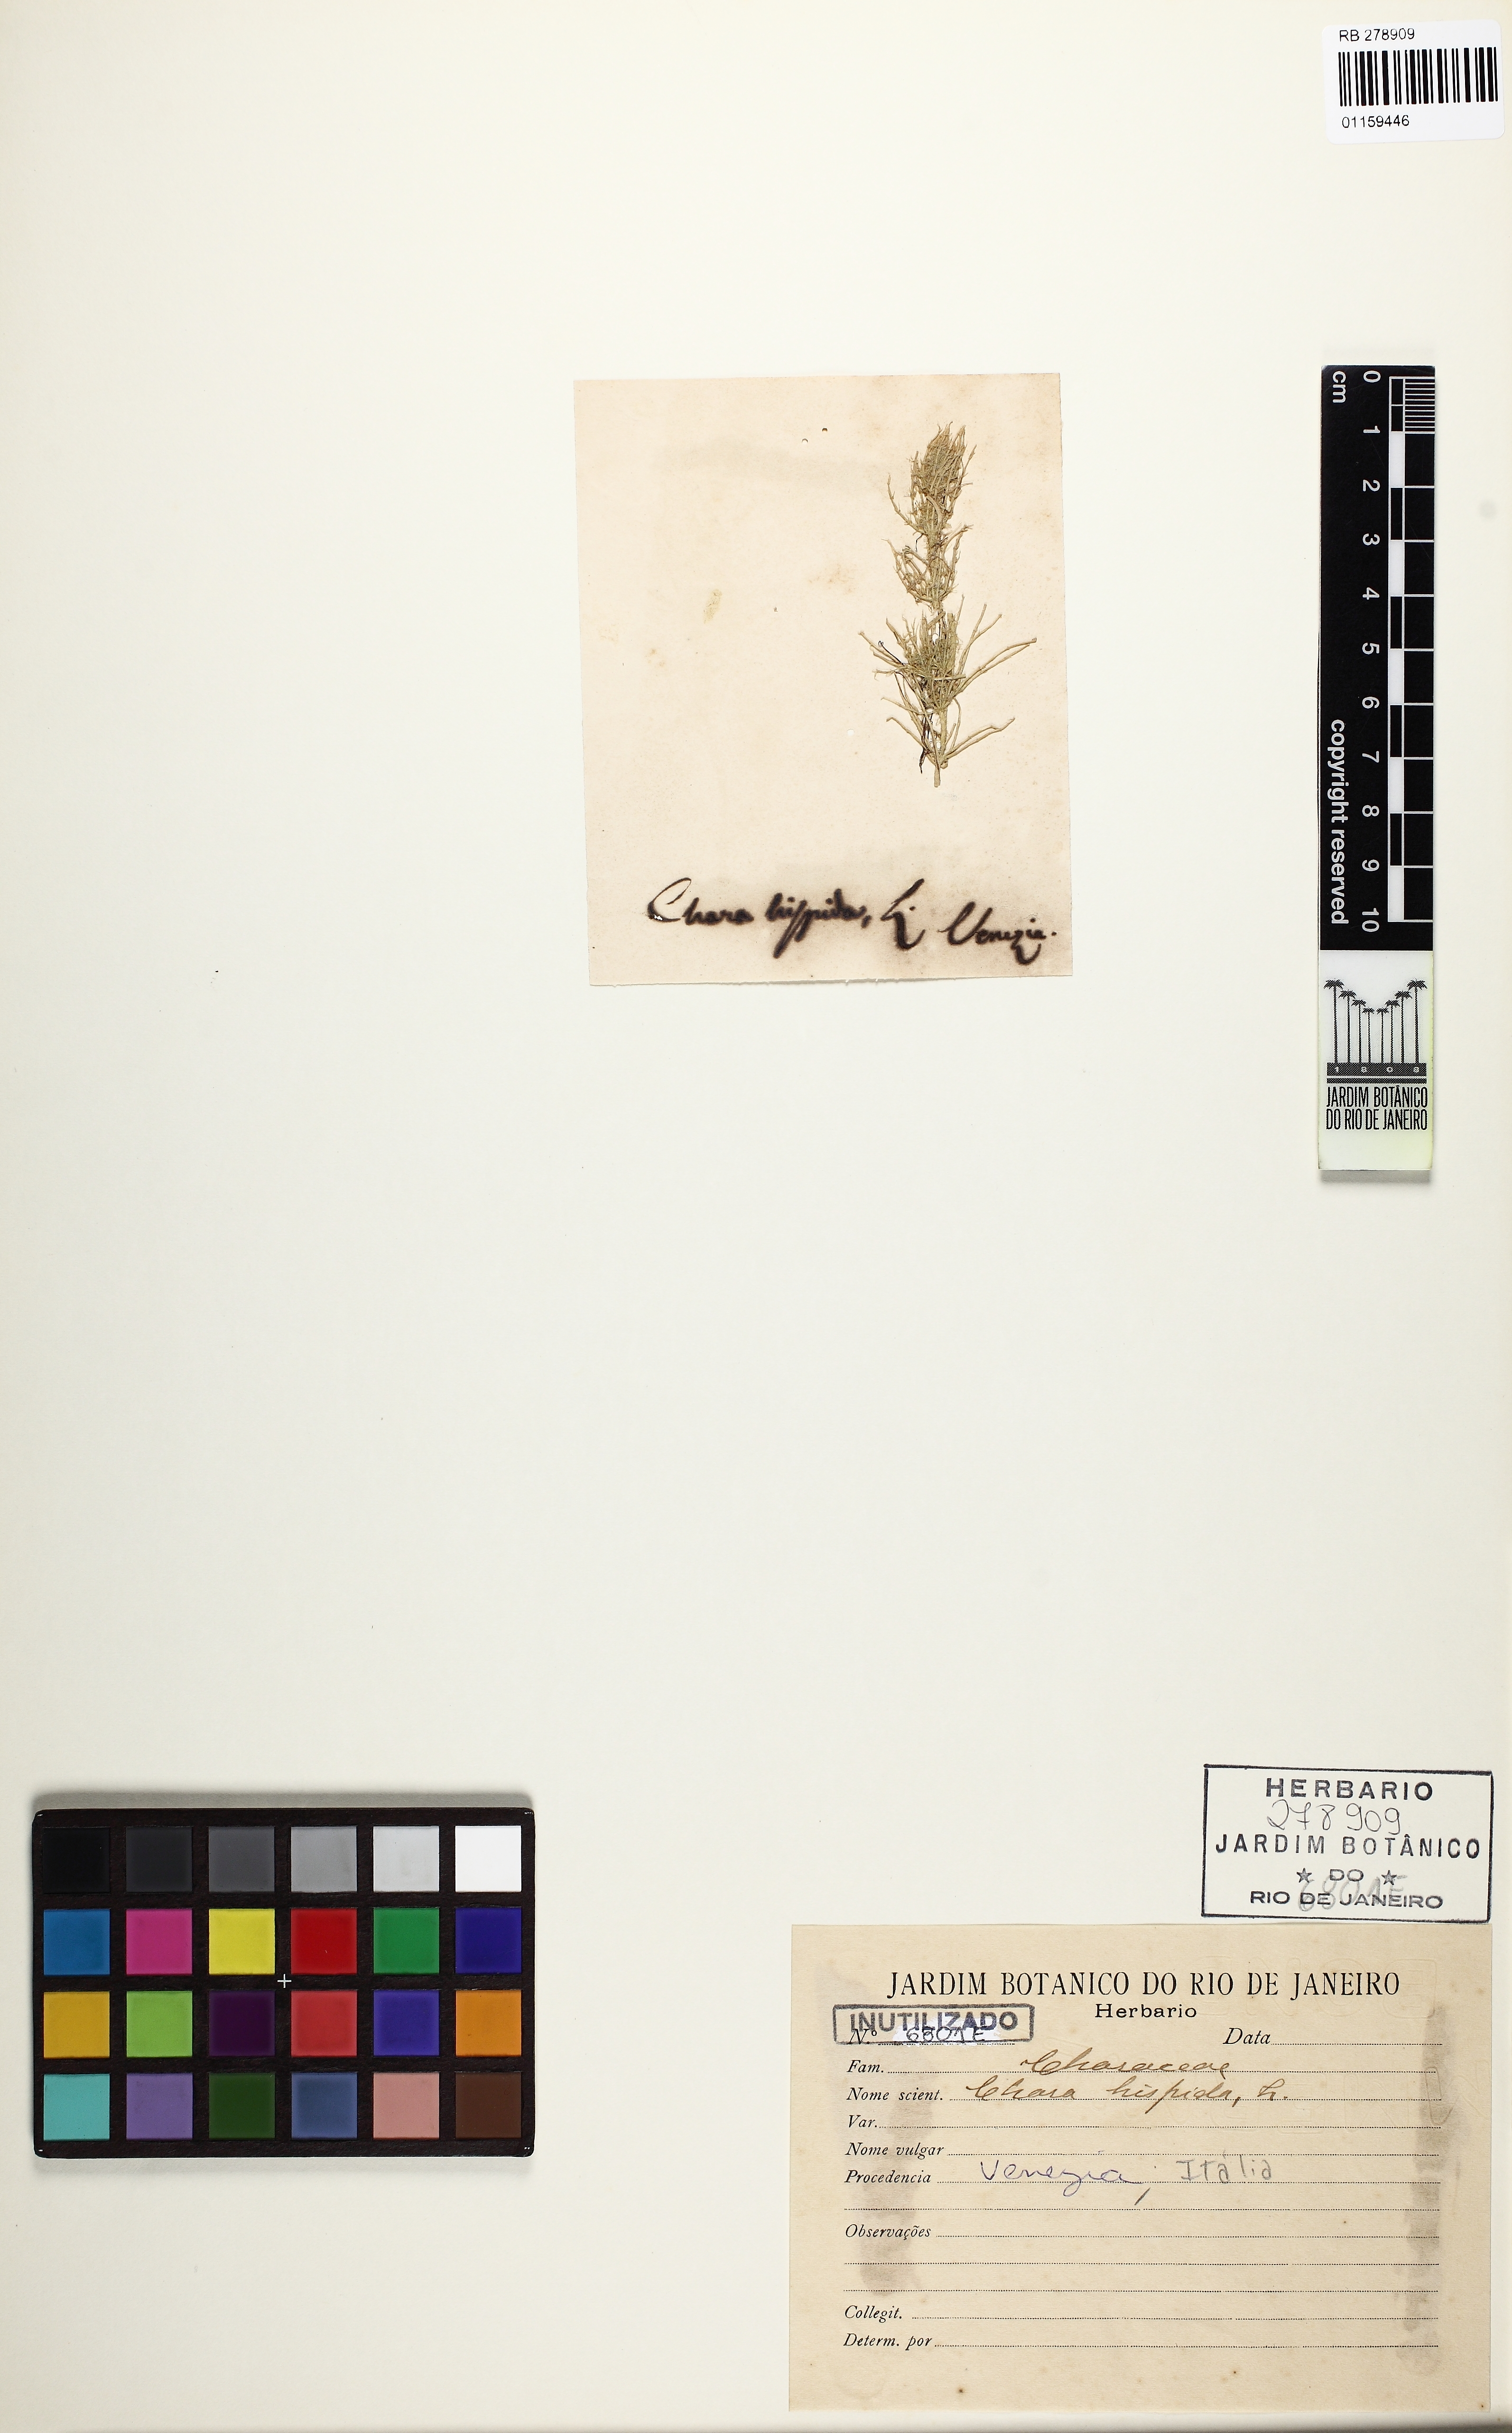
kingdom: Plantae
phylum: Charophyta
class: Charophyceae
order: Charales
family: Characeae
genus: Chara
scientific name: Chara hispida
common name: Bristly stonewort
